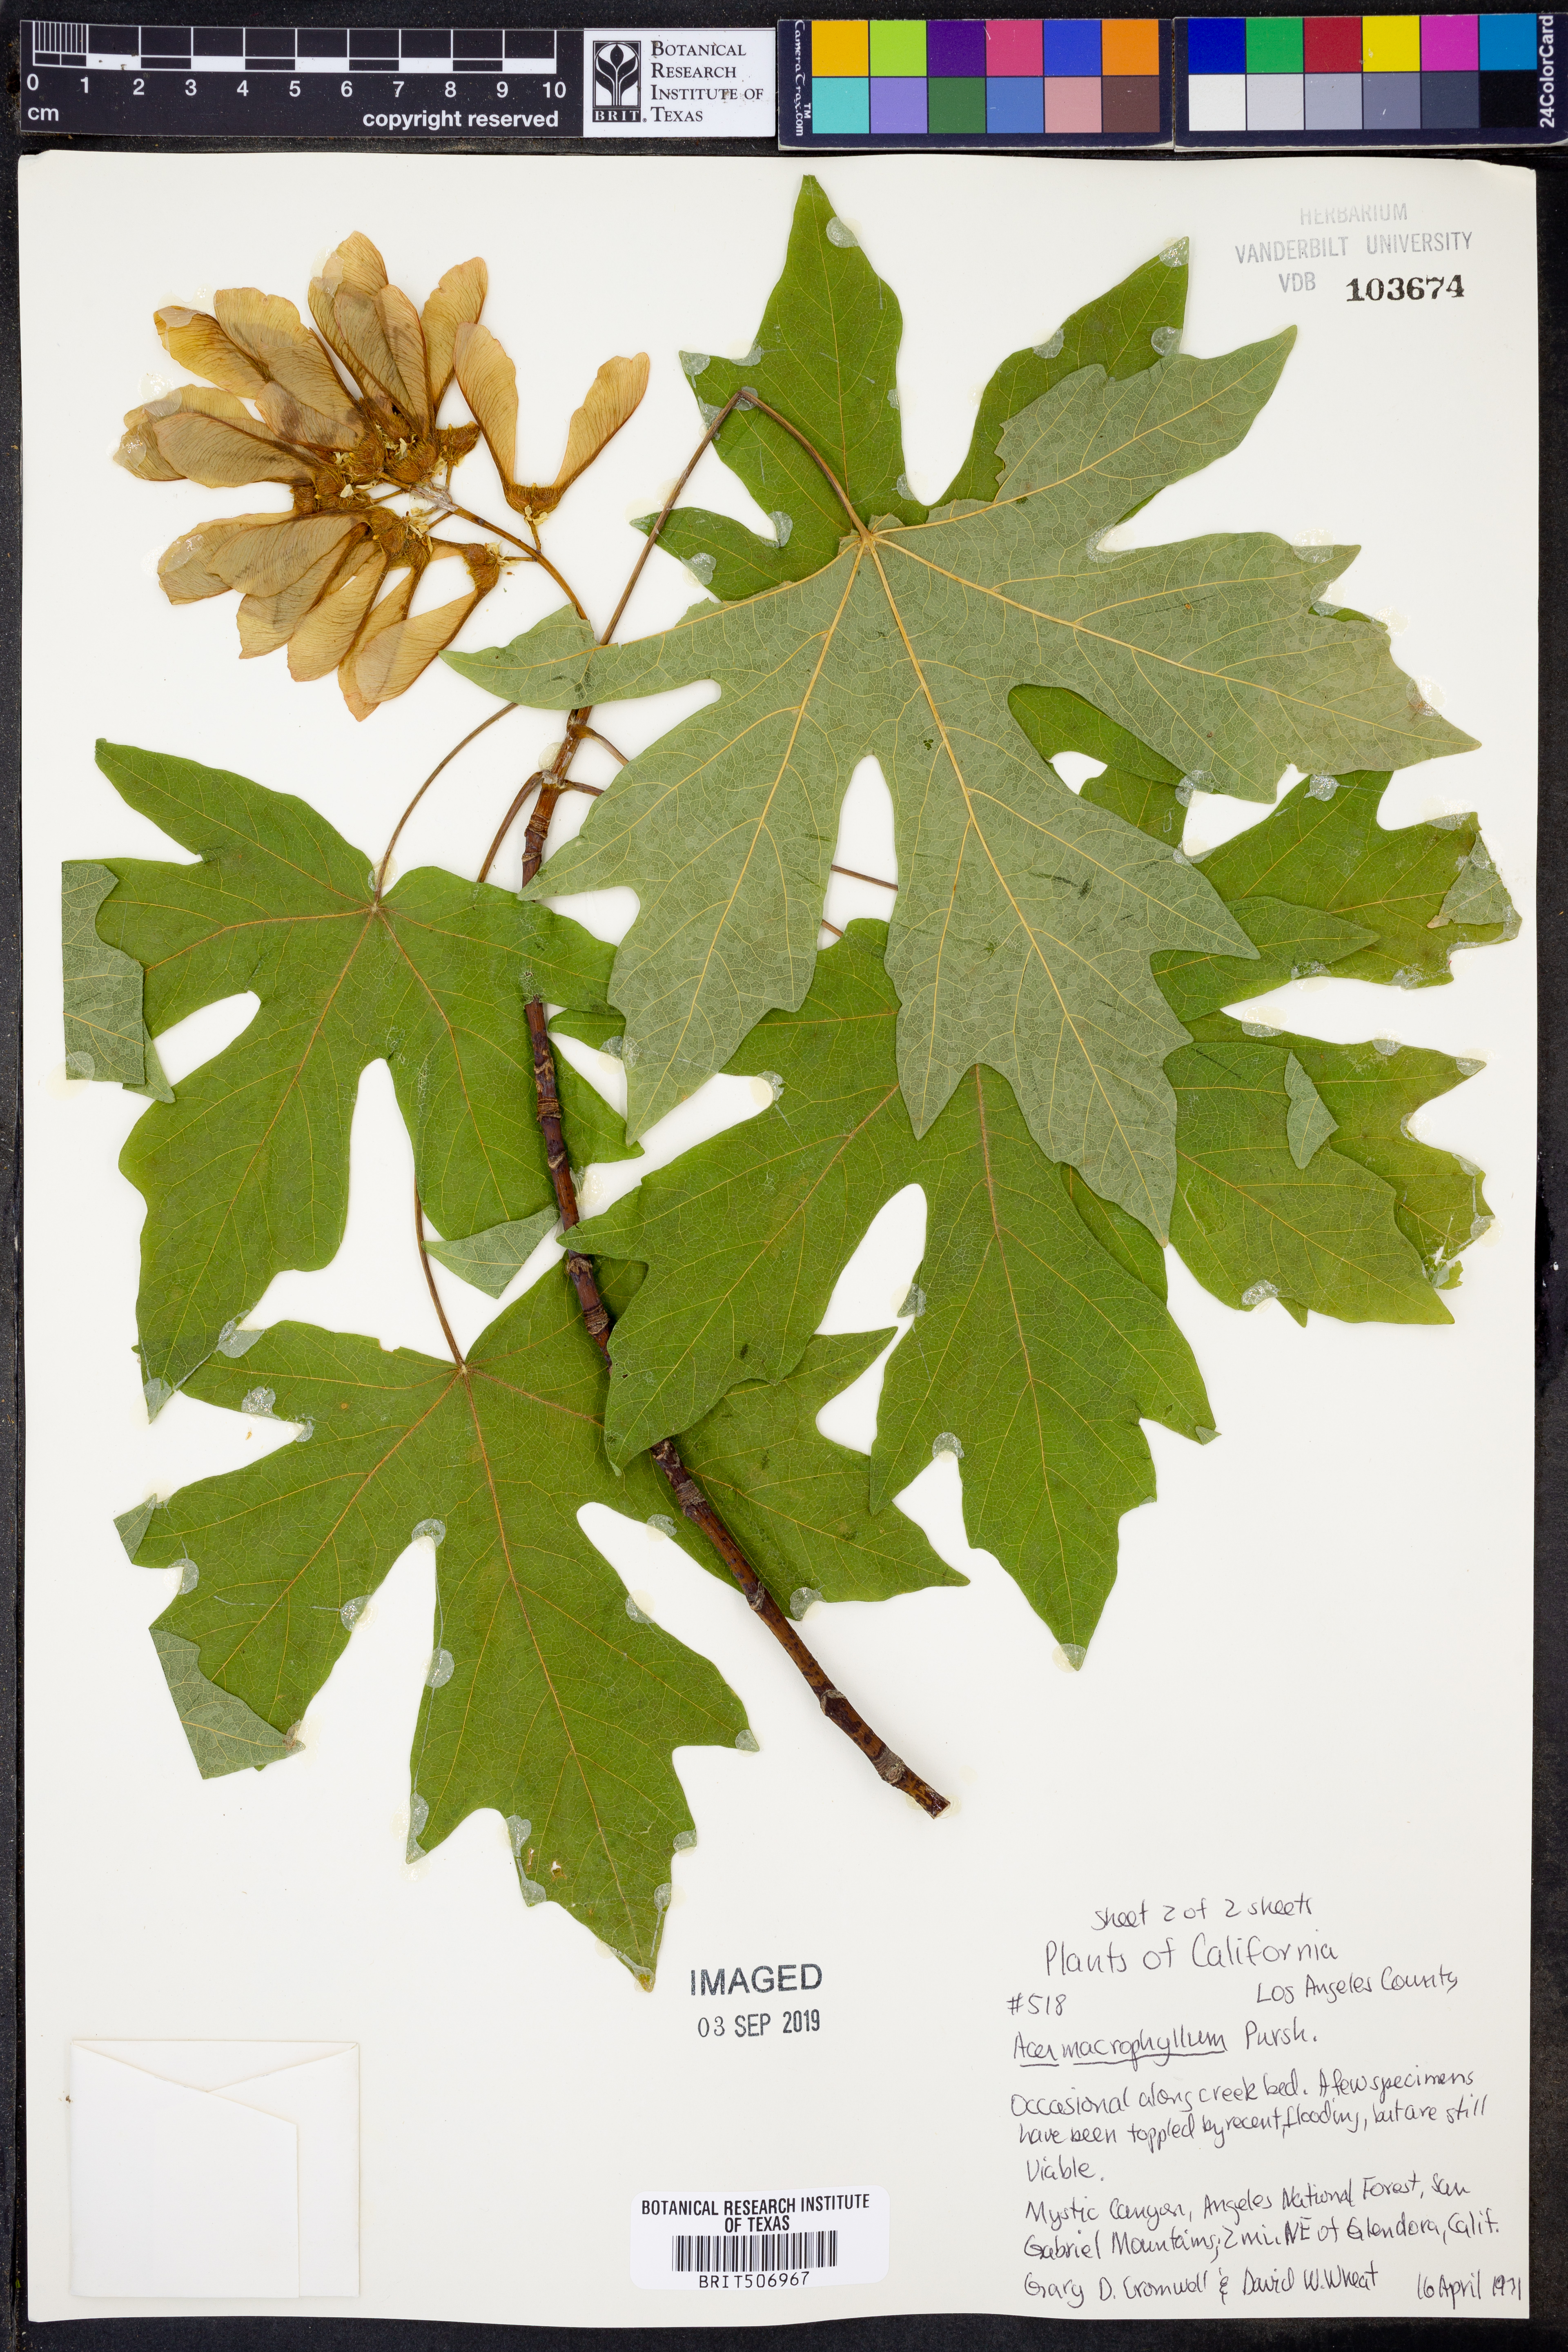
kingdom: Plantae
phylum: Tracheophyta
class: Magnoliopsida
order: Sapindales
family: Sapindaceae
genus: Acer
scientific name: Acer macrophyllum
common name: Oregon maple
